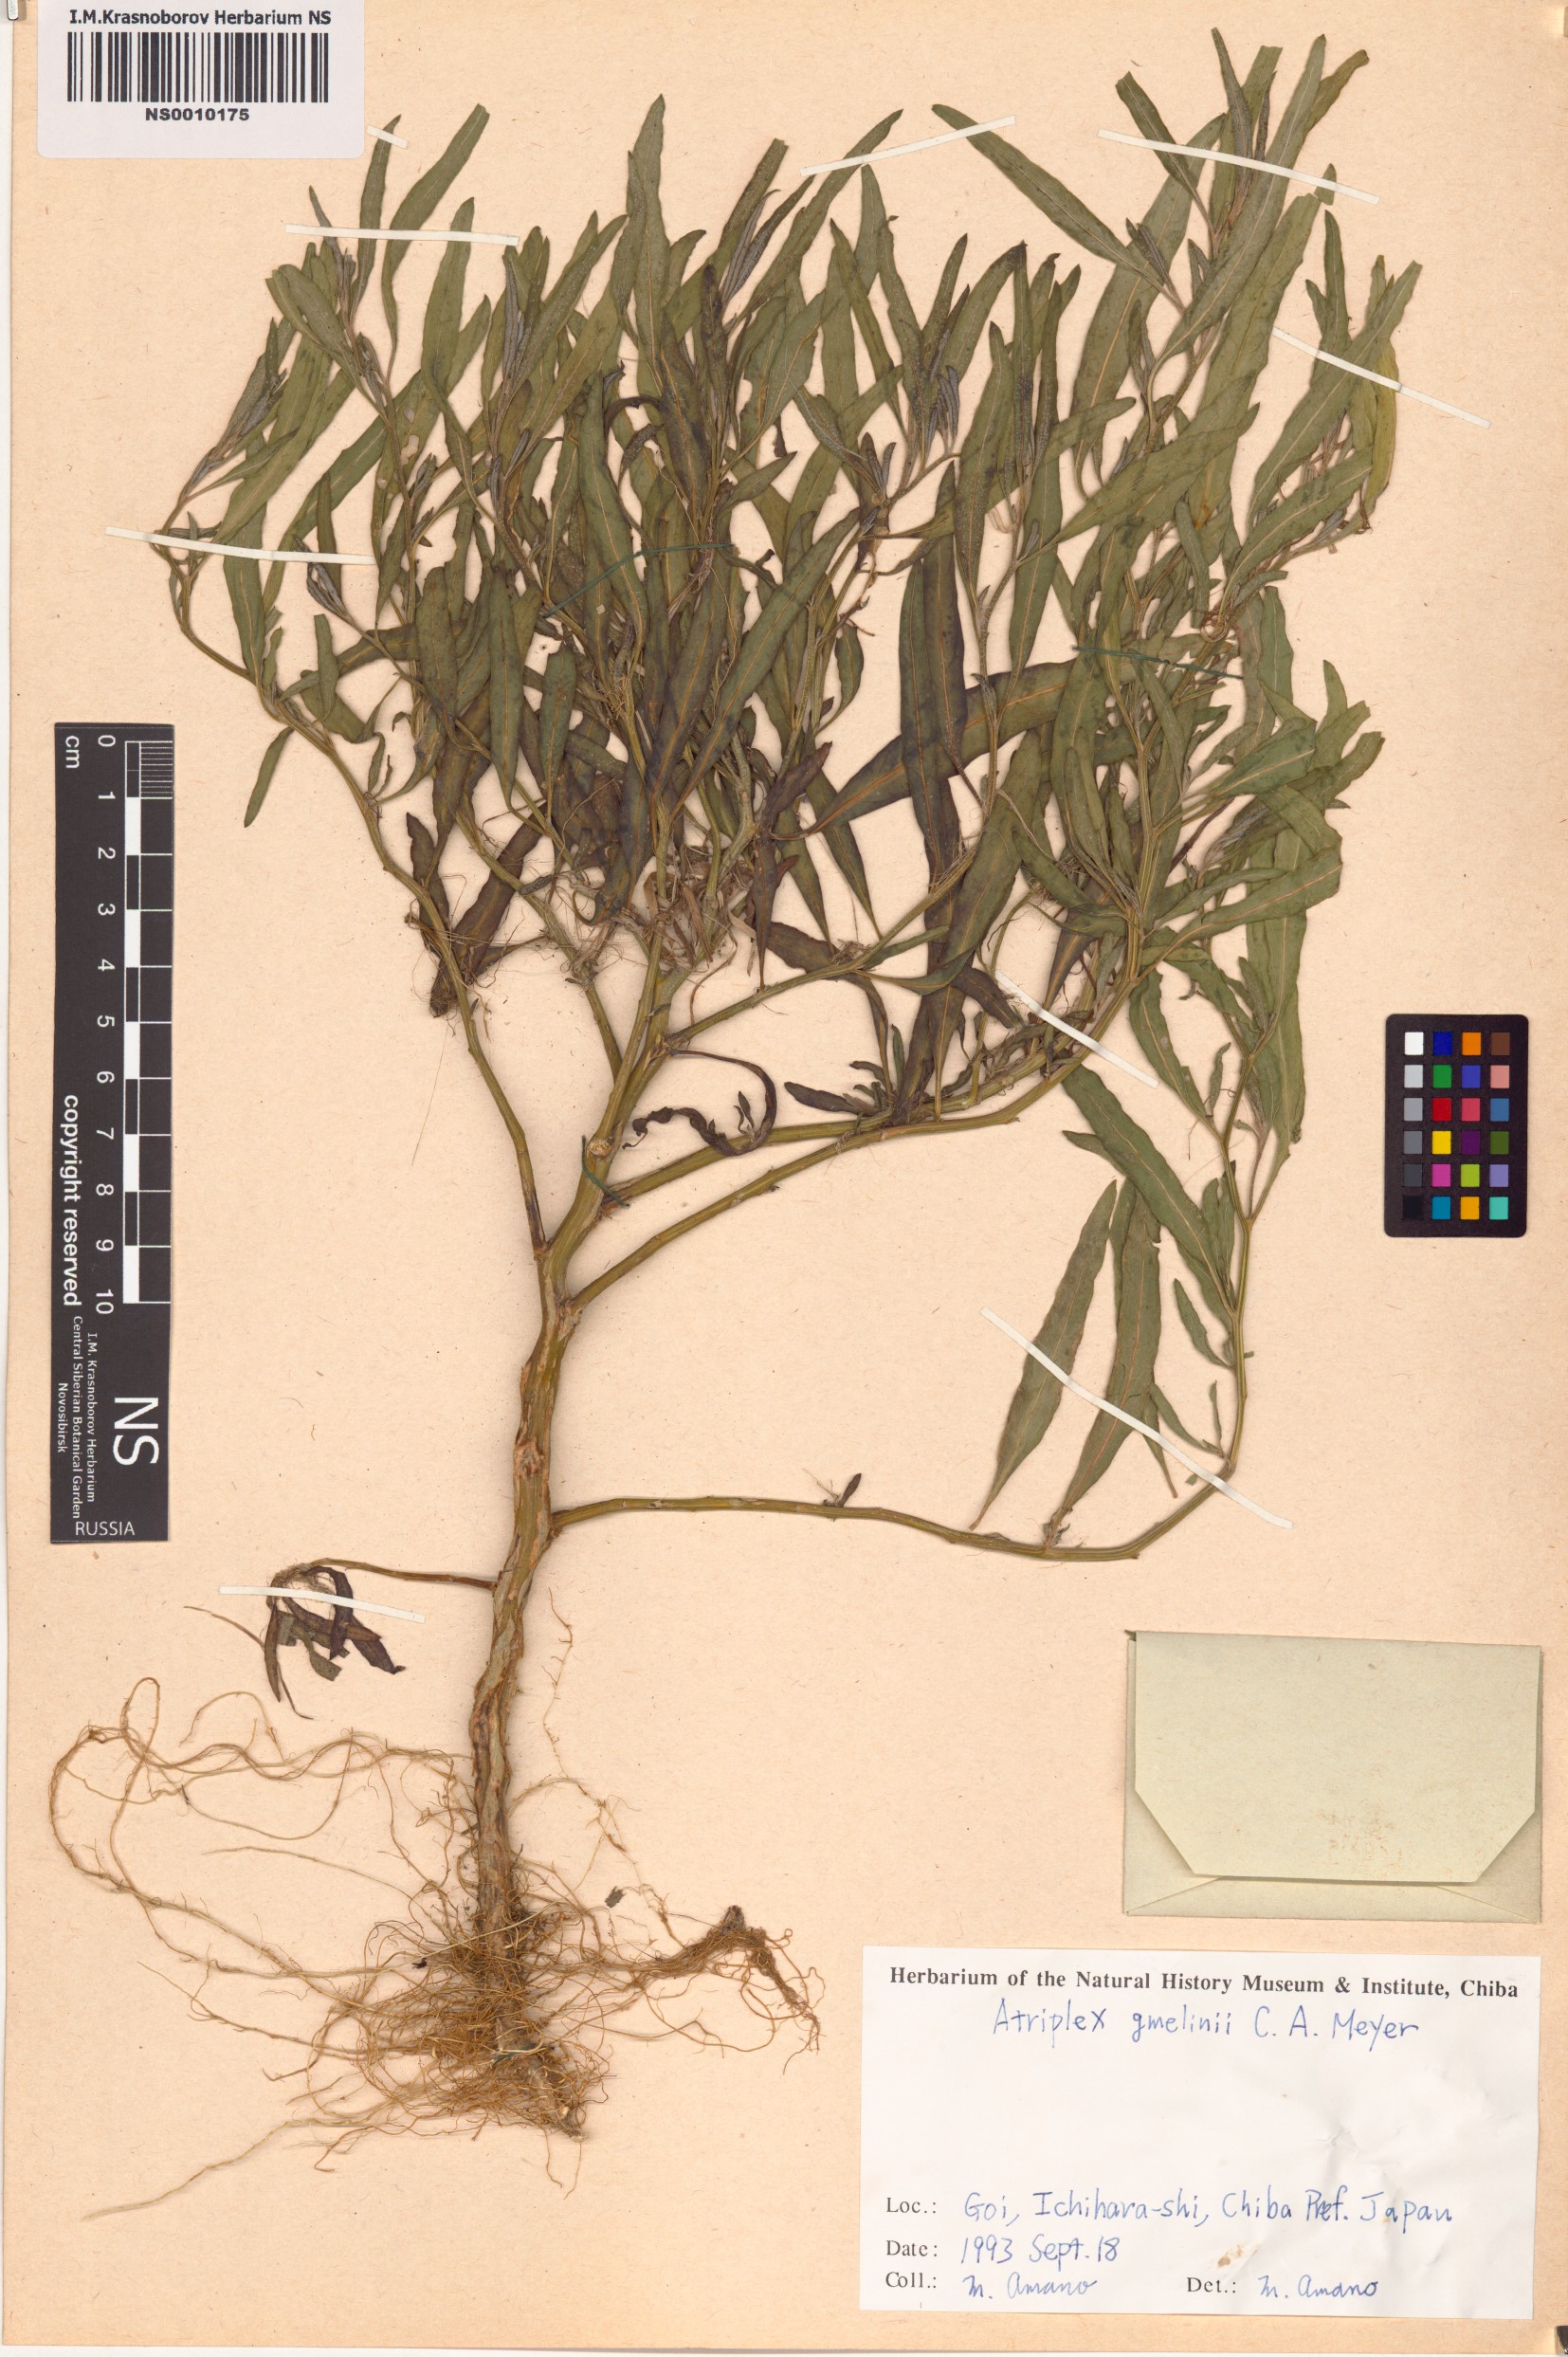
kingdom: Plantae
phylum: Tracheophyta
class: Magnoliopsida
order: Caryophyllales
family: Amaranthaceae
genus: Atriplex
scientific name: Atriplex gmelinii
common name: Gmelin's orach
